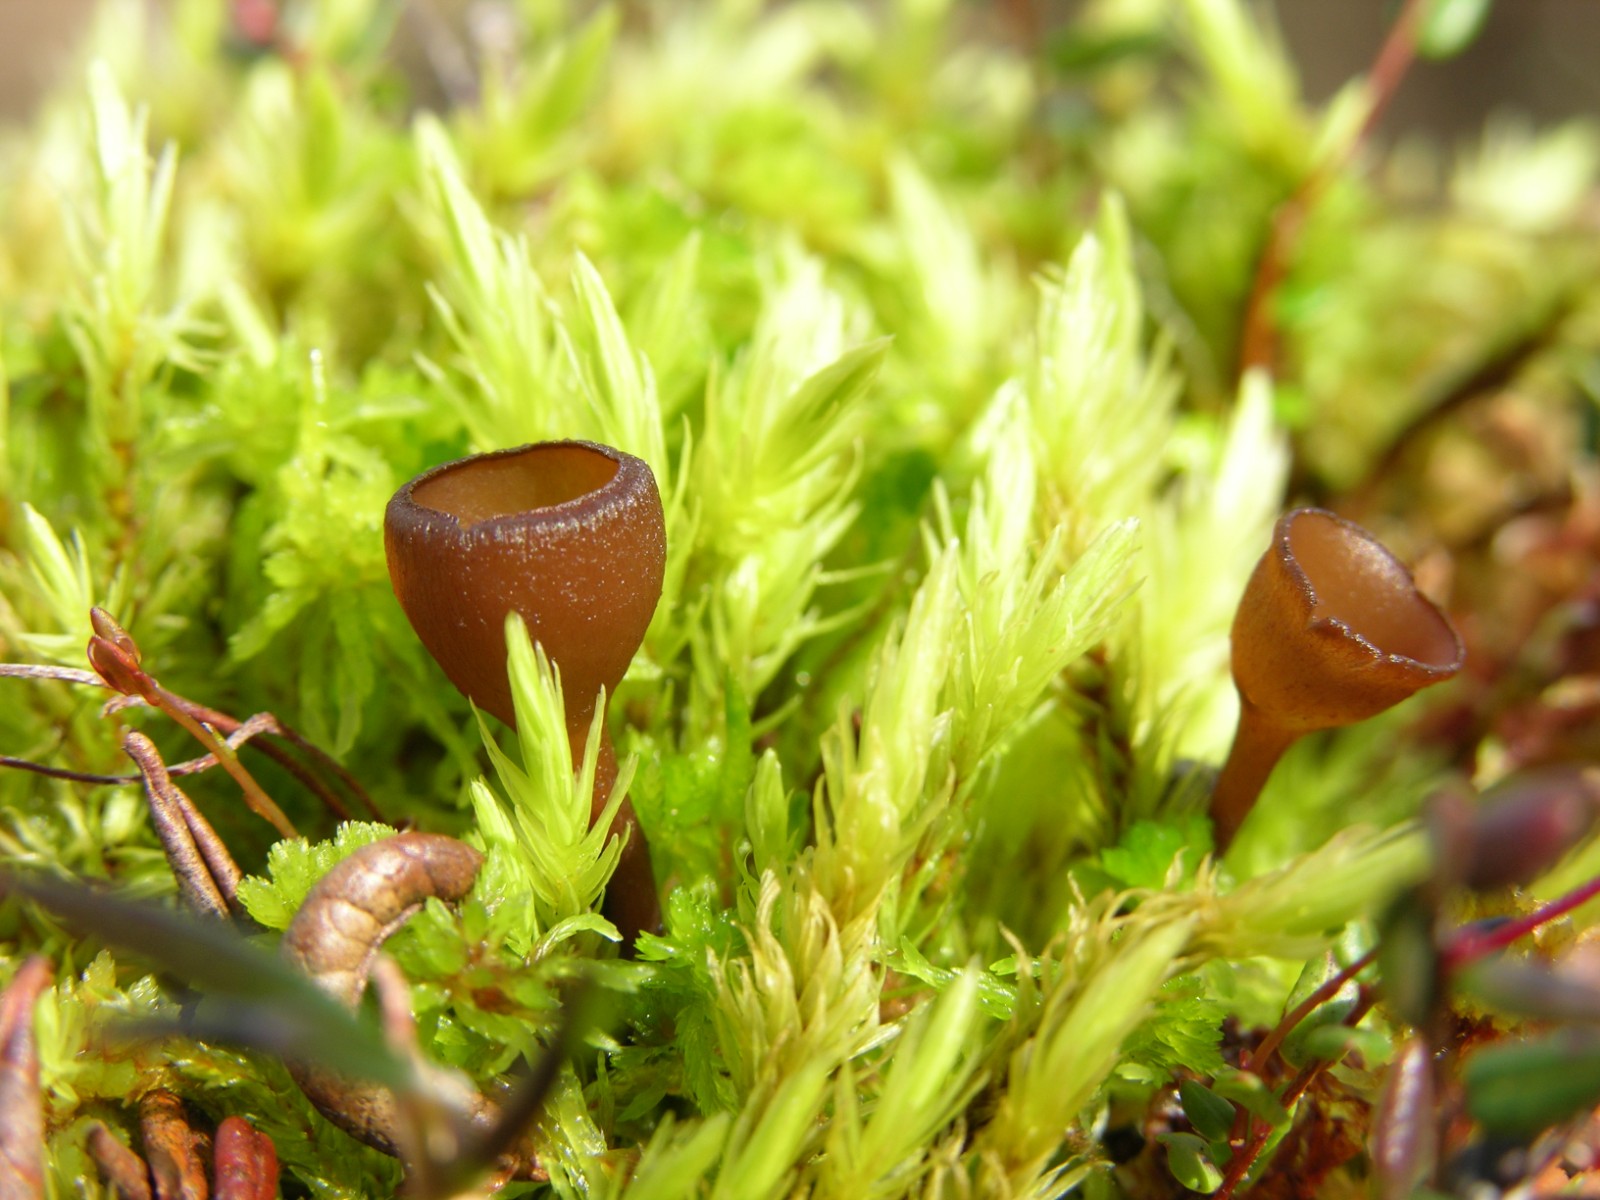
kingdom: Fungi
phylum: Ascomycota
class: Leotiomycetes
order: Helotiales
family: Sclerotiniaceae
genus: Monilinia
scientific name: Monilinia oxycocci
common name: tranebær-knoldskive
